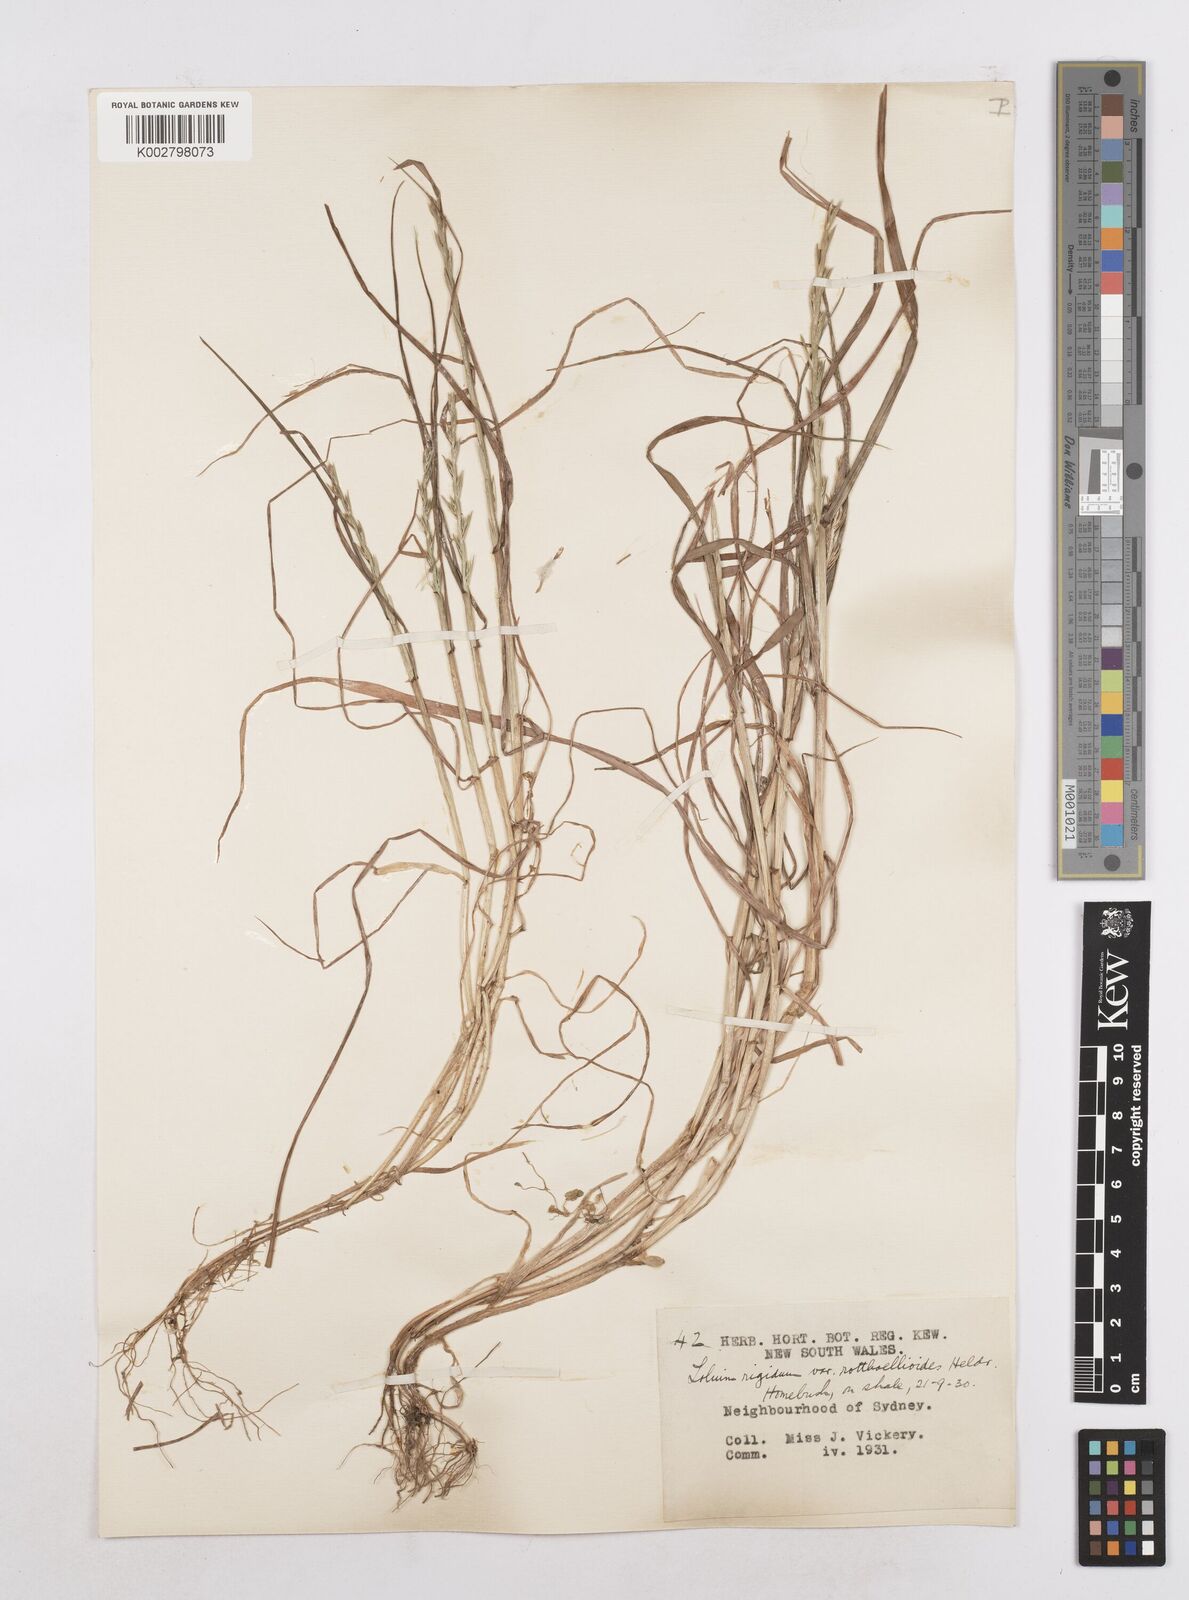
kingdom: Plantae
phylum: Tracheophyta
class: Liliopsida
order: Poales
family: Poaceae
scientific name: Poaceae
